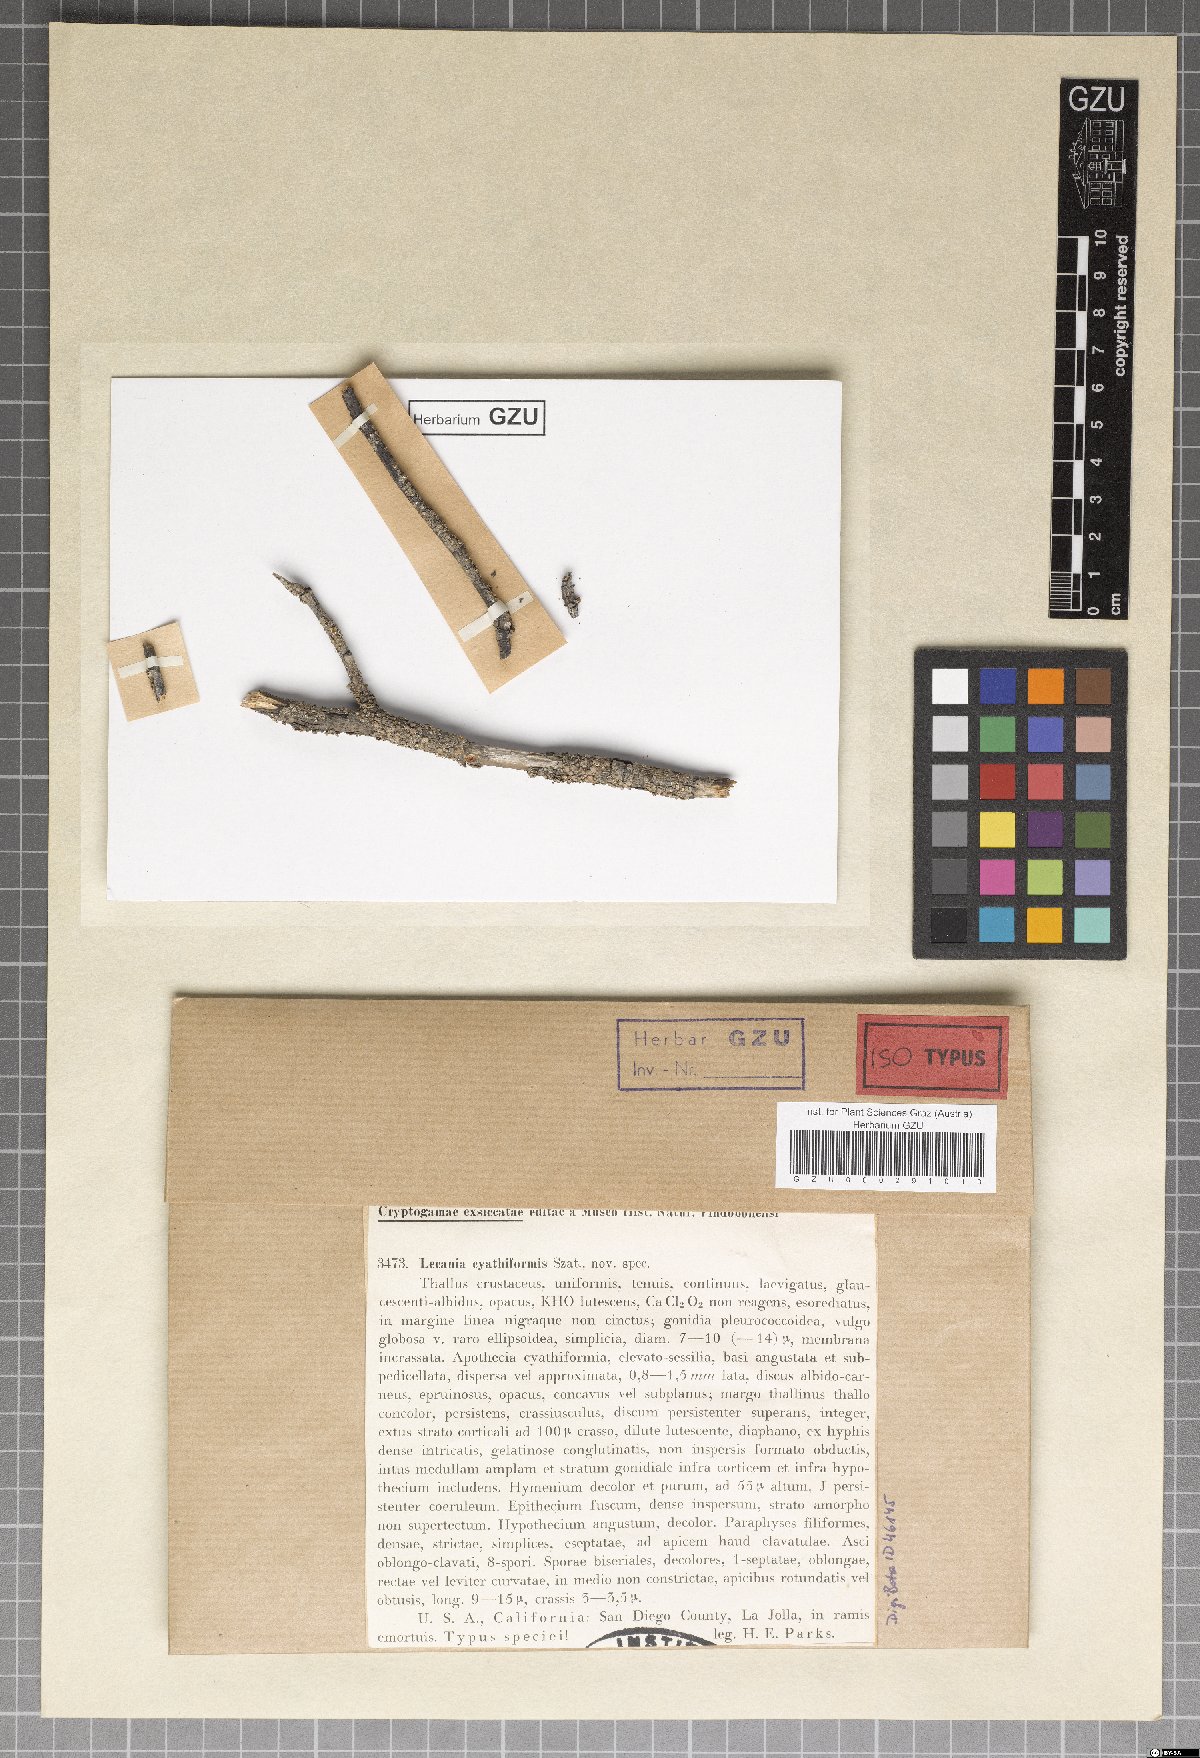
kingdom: Fungi
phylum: Ascomycota
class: Lecanoromycetes
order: Lecanorales
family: Catillariaceae
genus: Solenopsora
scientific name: Solenopsora cyathiformis
